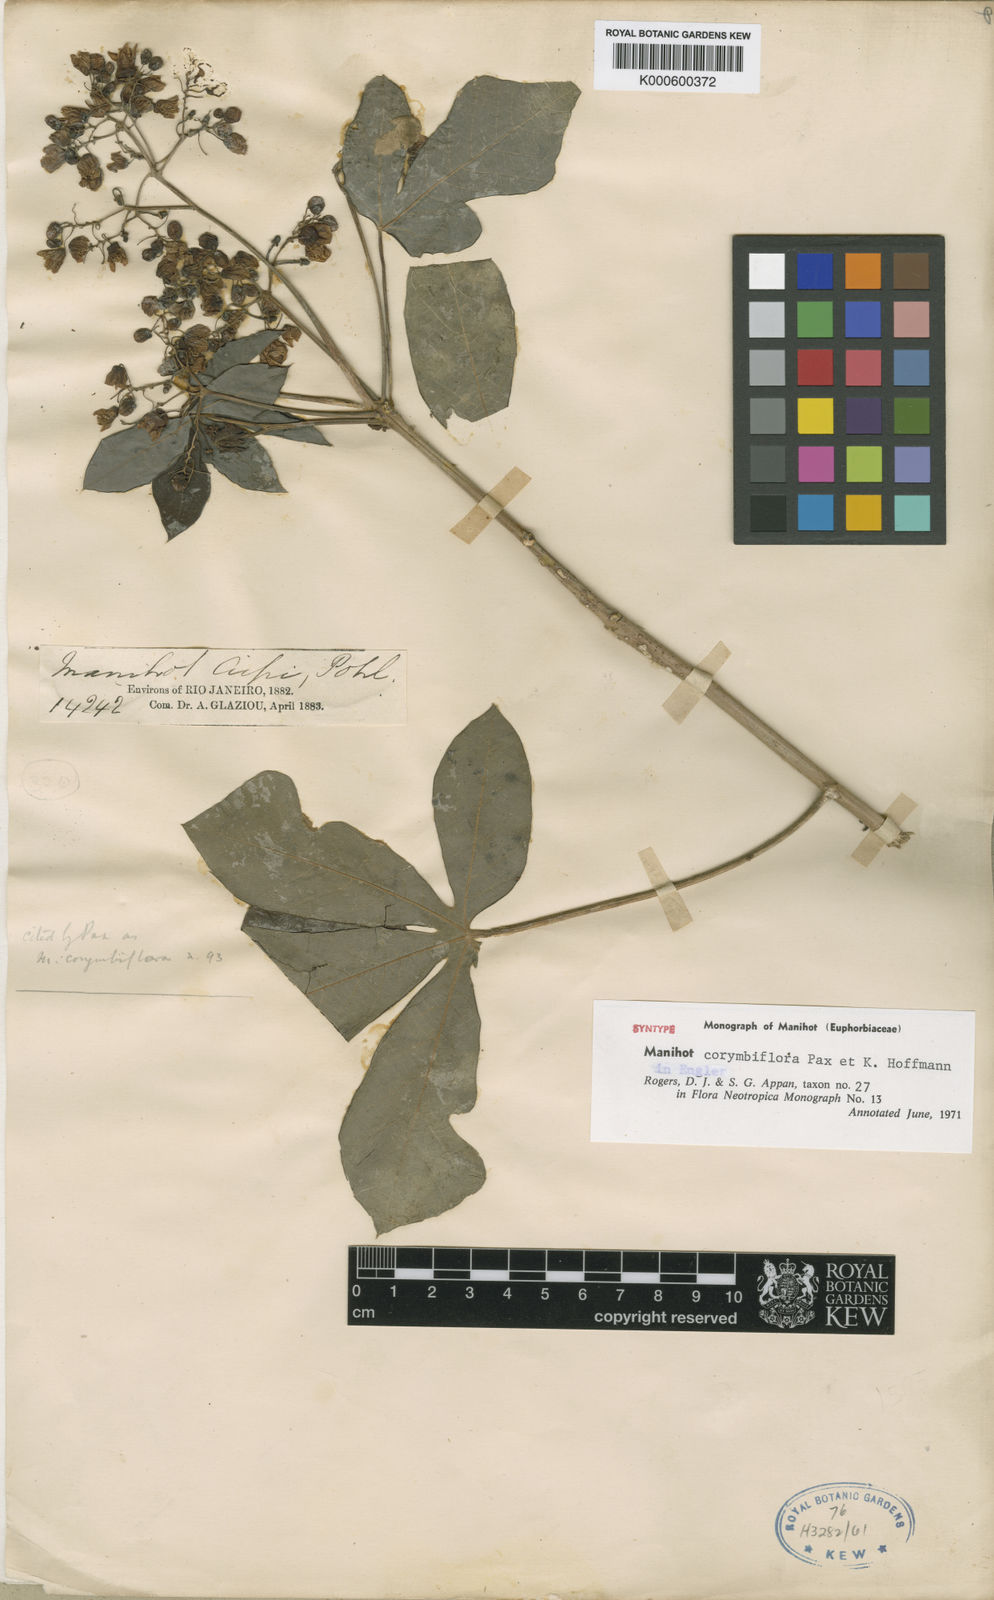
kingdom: Plantae
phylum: Tracheophyta
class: Magnoliopsida
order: Malpighiales
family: Euphorbiaceae
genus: Manihot
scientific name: Manihot corymbiflora
